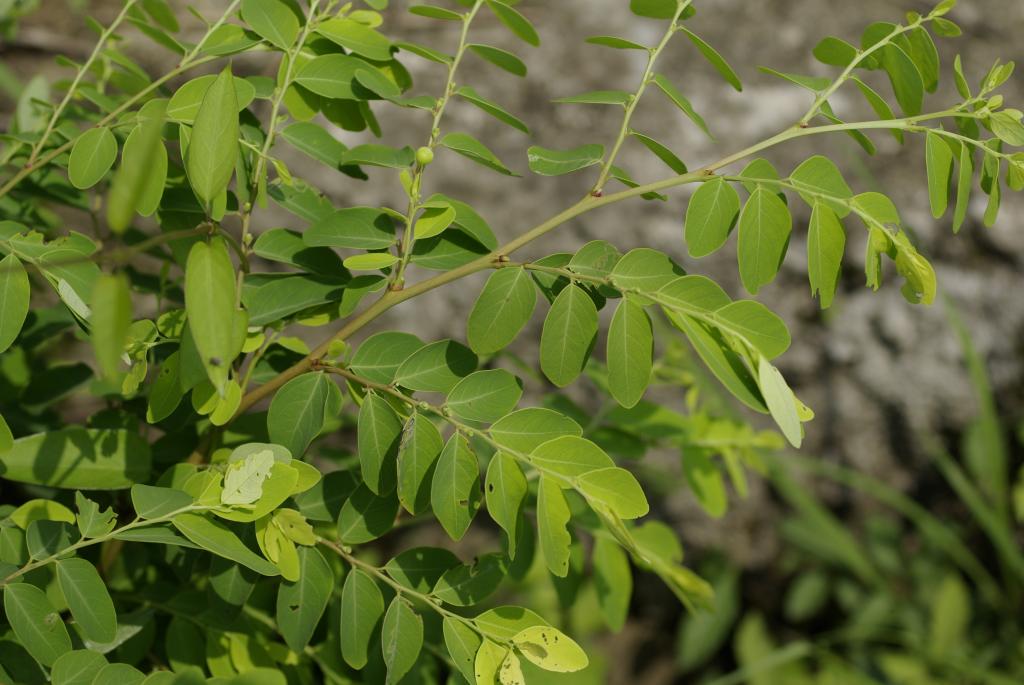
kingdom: Plantae
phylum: Tracheophyta
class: Magnoliopsida
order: Malpighiales
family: Phyllanthaceae
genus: Breynia
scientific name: Breynia officinalis
